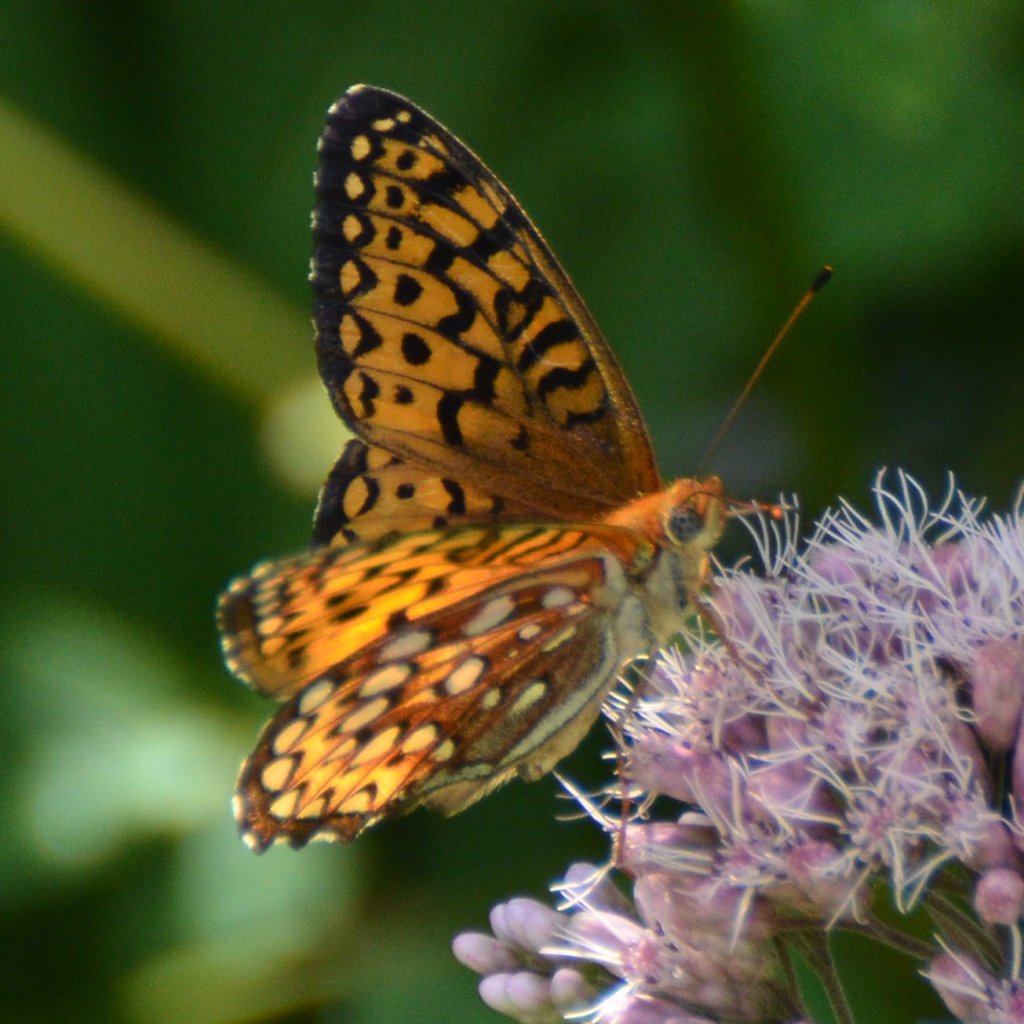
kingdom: Animalia
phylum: Arthropoda
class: Insecta
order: Lepidoptera
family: Nymphalidae
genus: Speyeria
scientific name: Speyeria atlantis
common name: Atlantis Fritillary
